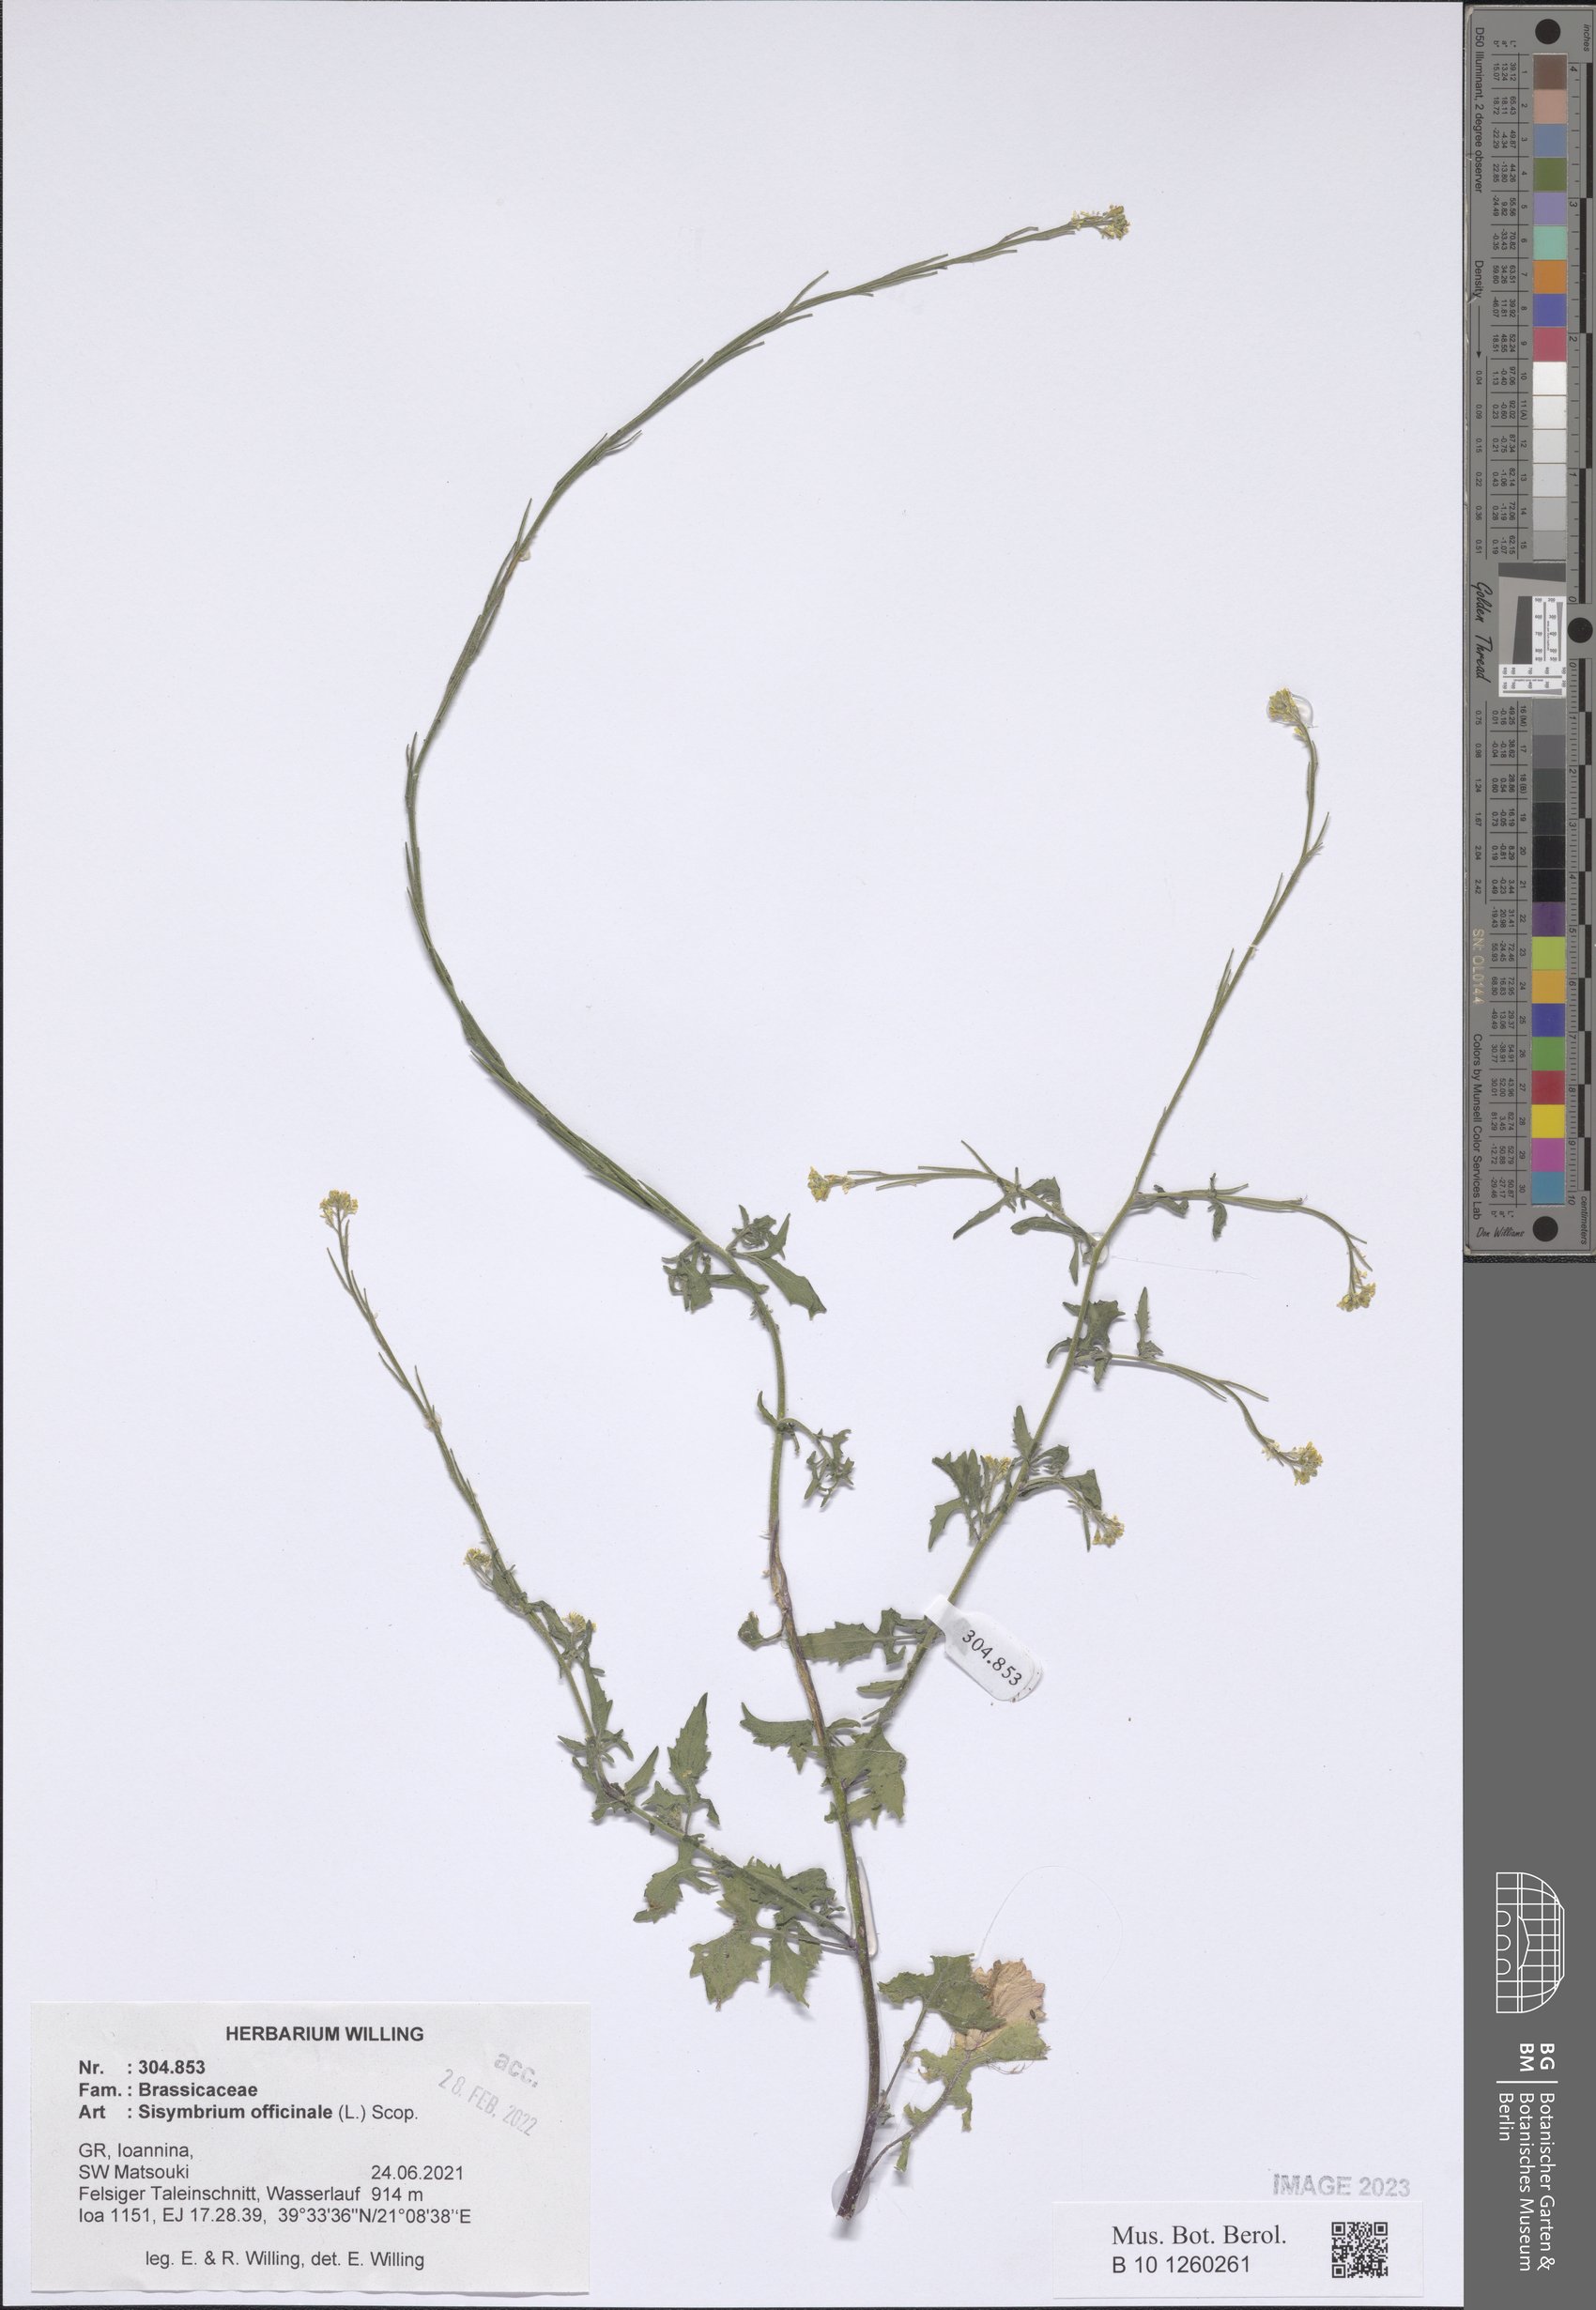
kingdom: Plantae
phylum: Tracheophyta
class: Magnoliopsida
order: Brassicales
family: Brassicaceae
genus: Sisymbrium
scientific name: Sisymbrium officinale
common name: Hedge mustard
